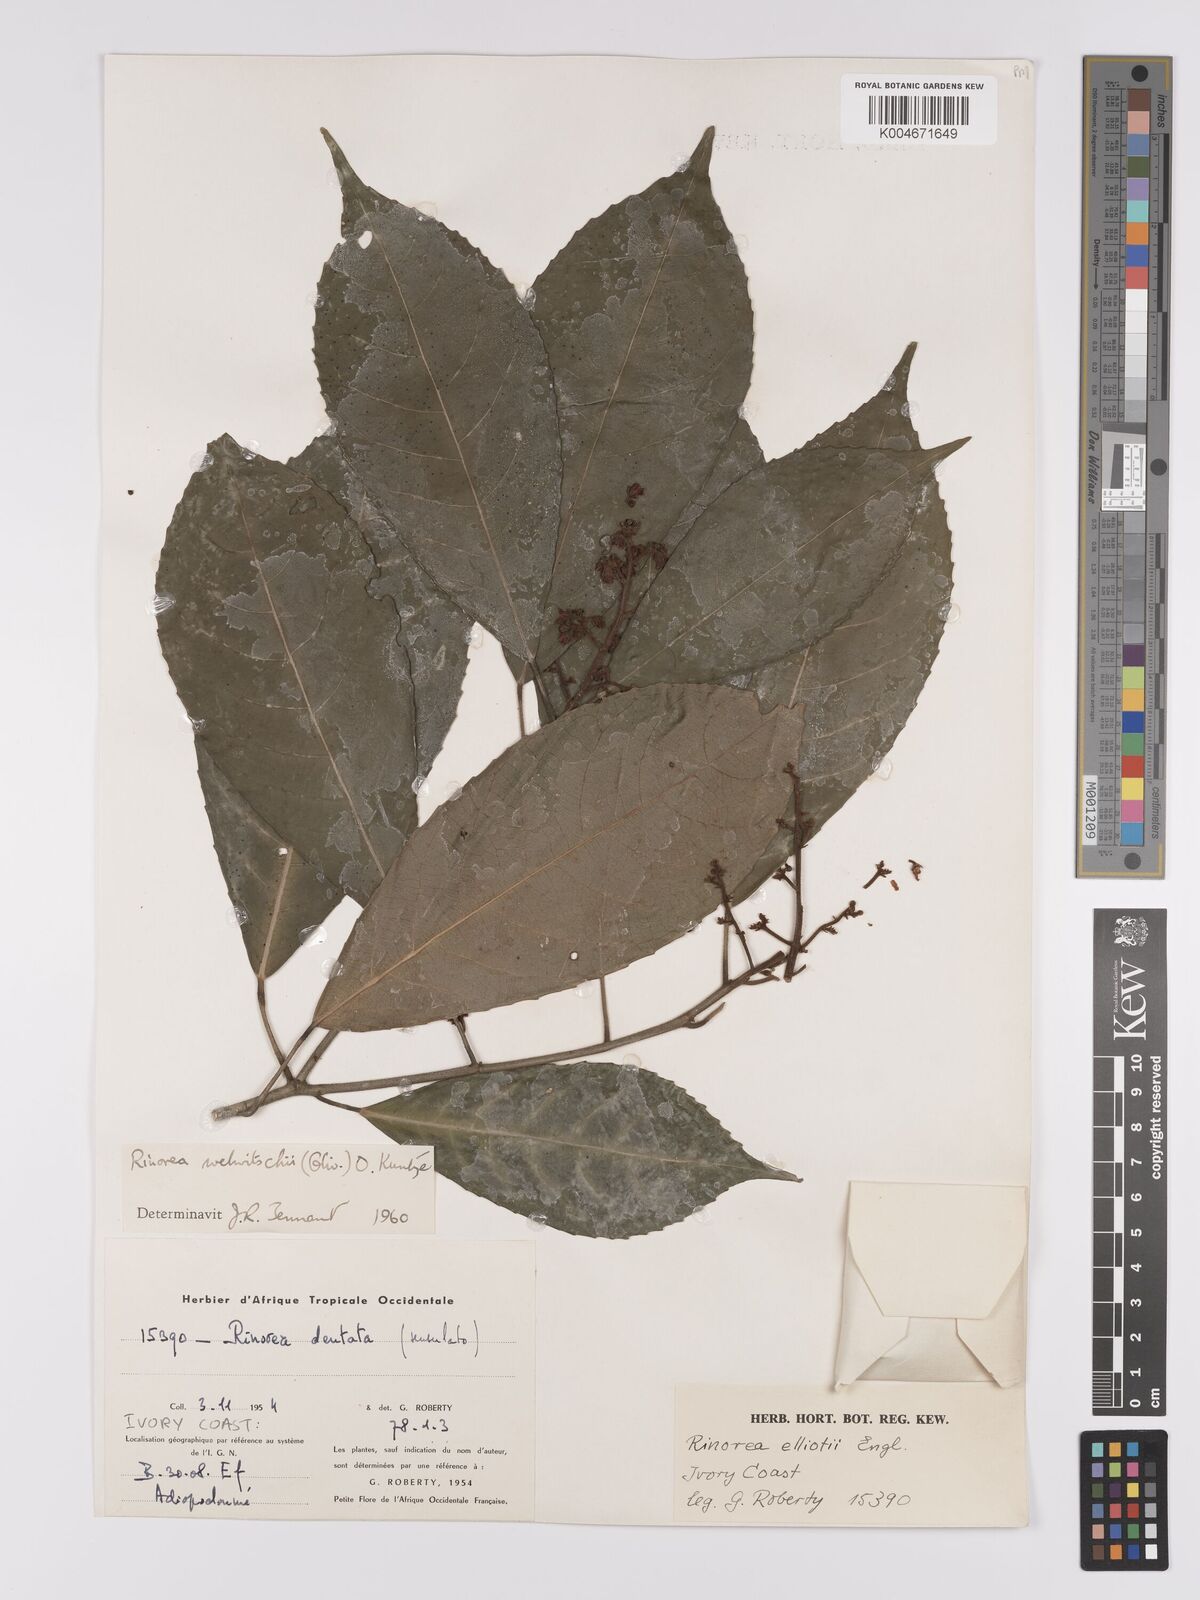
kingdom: Plantae
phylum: Tracheophyta
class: Magnoliopsida
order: Malpighiales
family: Violaceae
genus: Rinorea
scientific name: Rinorea welwitschii
